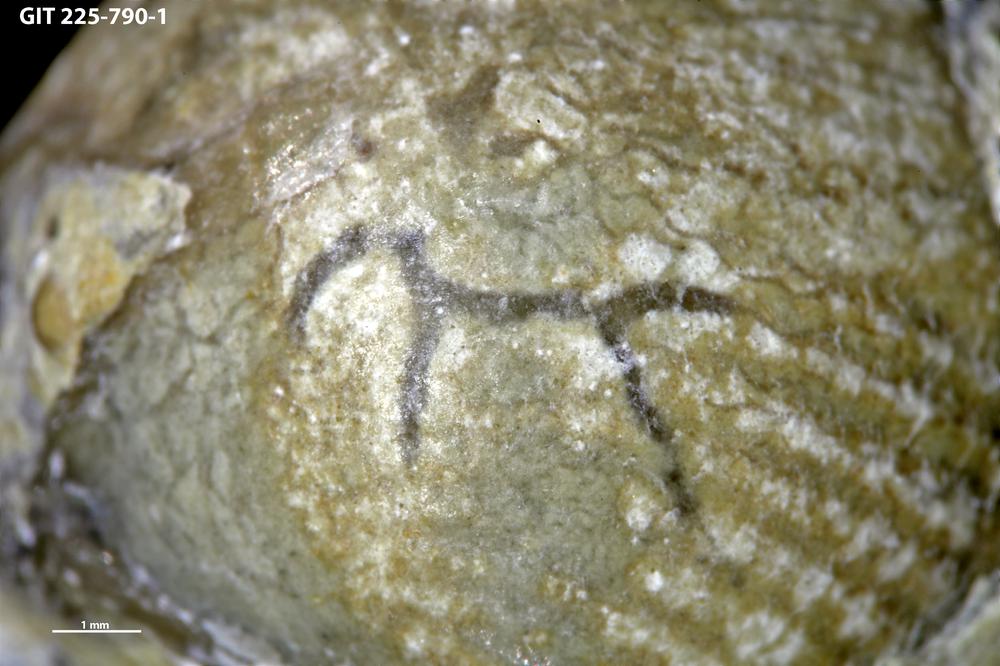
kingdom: Animalia
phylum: Annelida
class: Polychaeta
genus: Arachnostega
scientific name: Arachnostega
